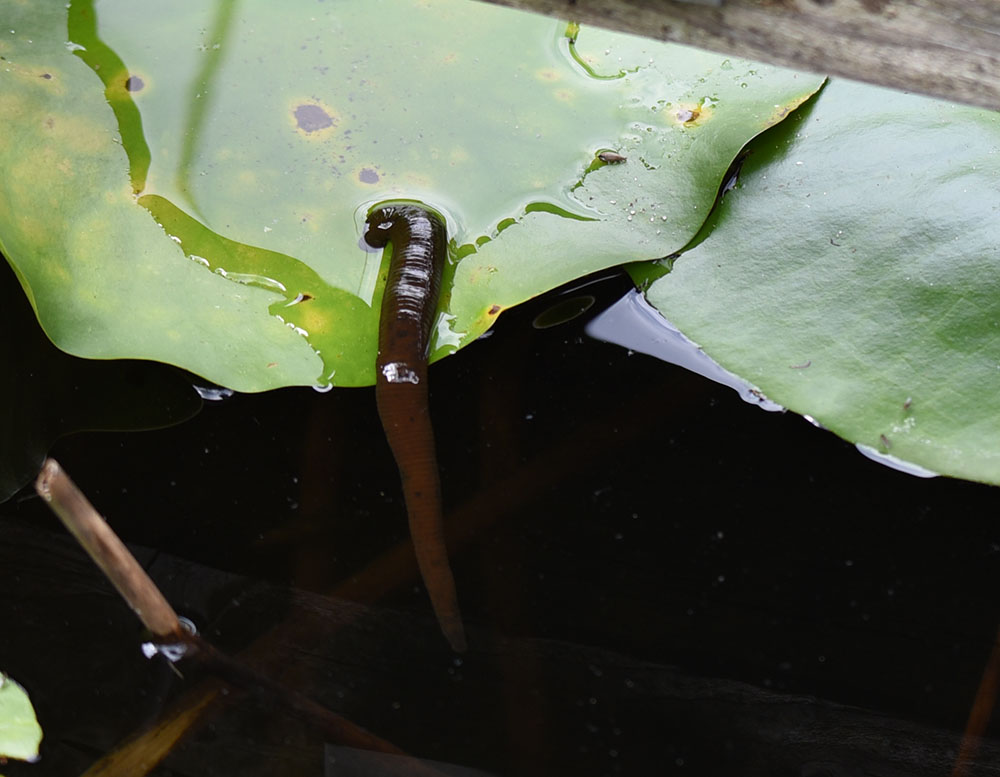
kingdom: Animalia
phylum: Annelida
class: Clitellata
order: Arhynchobdellida
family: Haemopidae
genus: Haemopis
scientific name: Haemopis sanguisuga
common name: Horse leech
